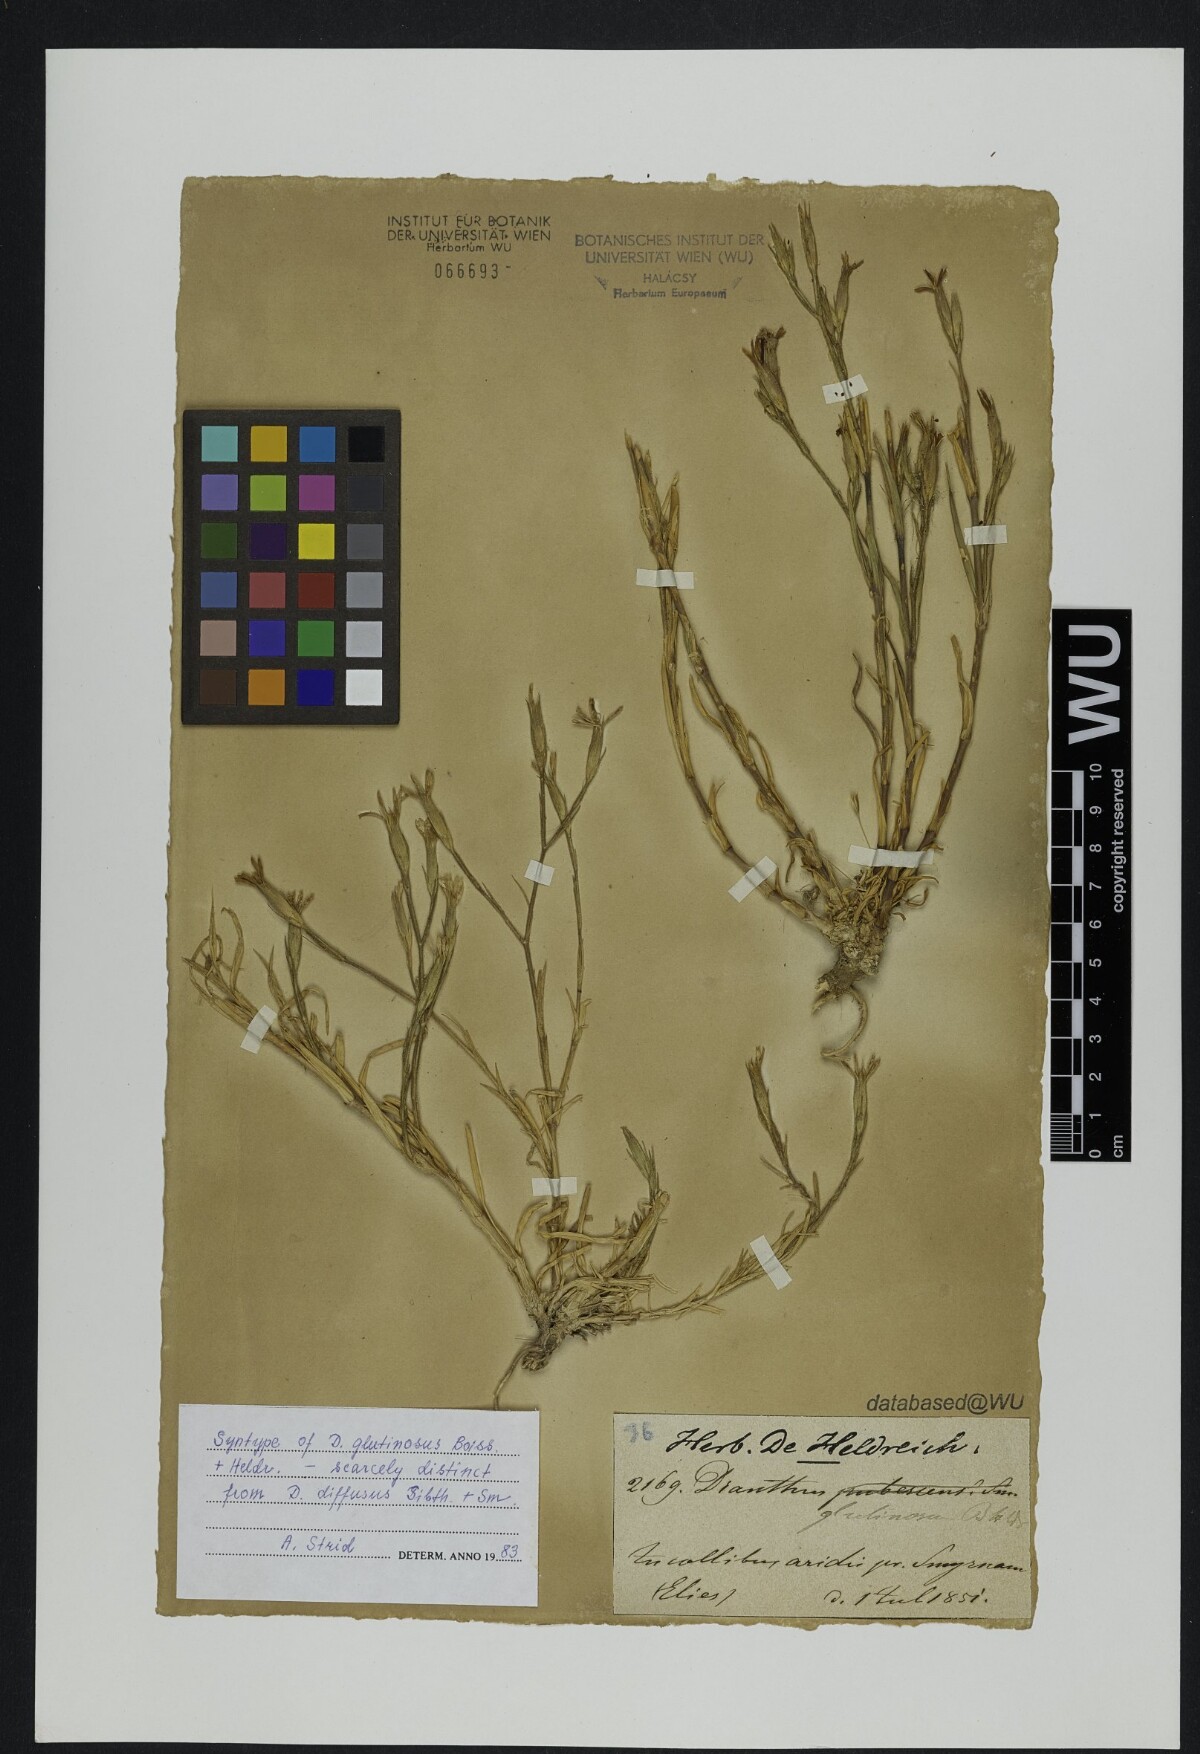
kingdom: Plantae
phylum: Tracheophyta
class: Magnoliopsida
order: Caryophyllales
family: Caryophyllaceae
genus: Dianthus
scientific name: Dianthus glutinosus
